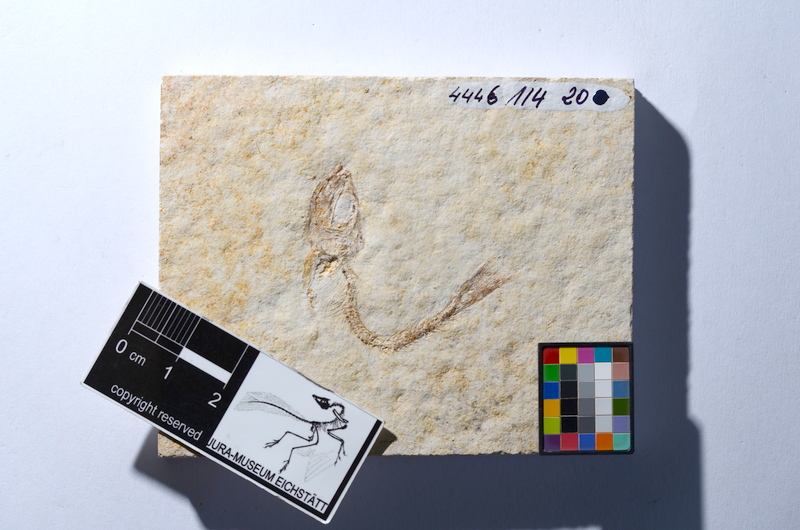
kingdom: Animalia
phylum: Chordata
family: Ascalaboidae
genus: Tharsis
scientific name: Tharsis dubius
